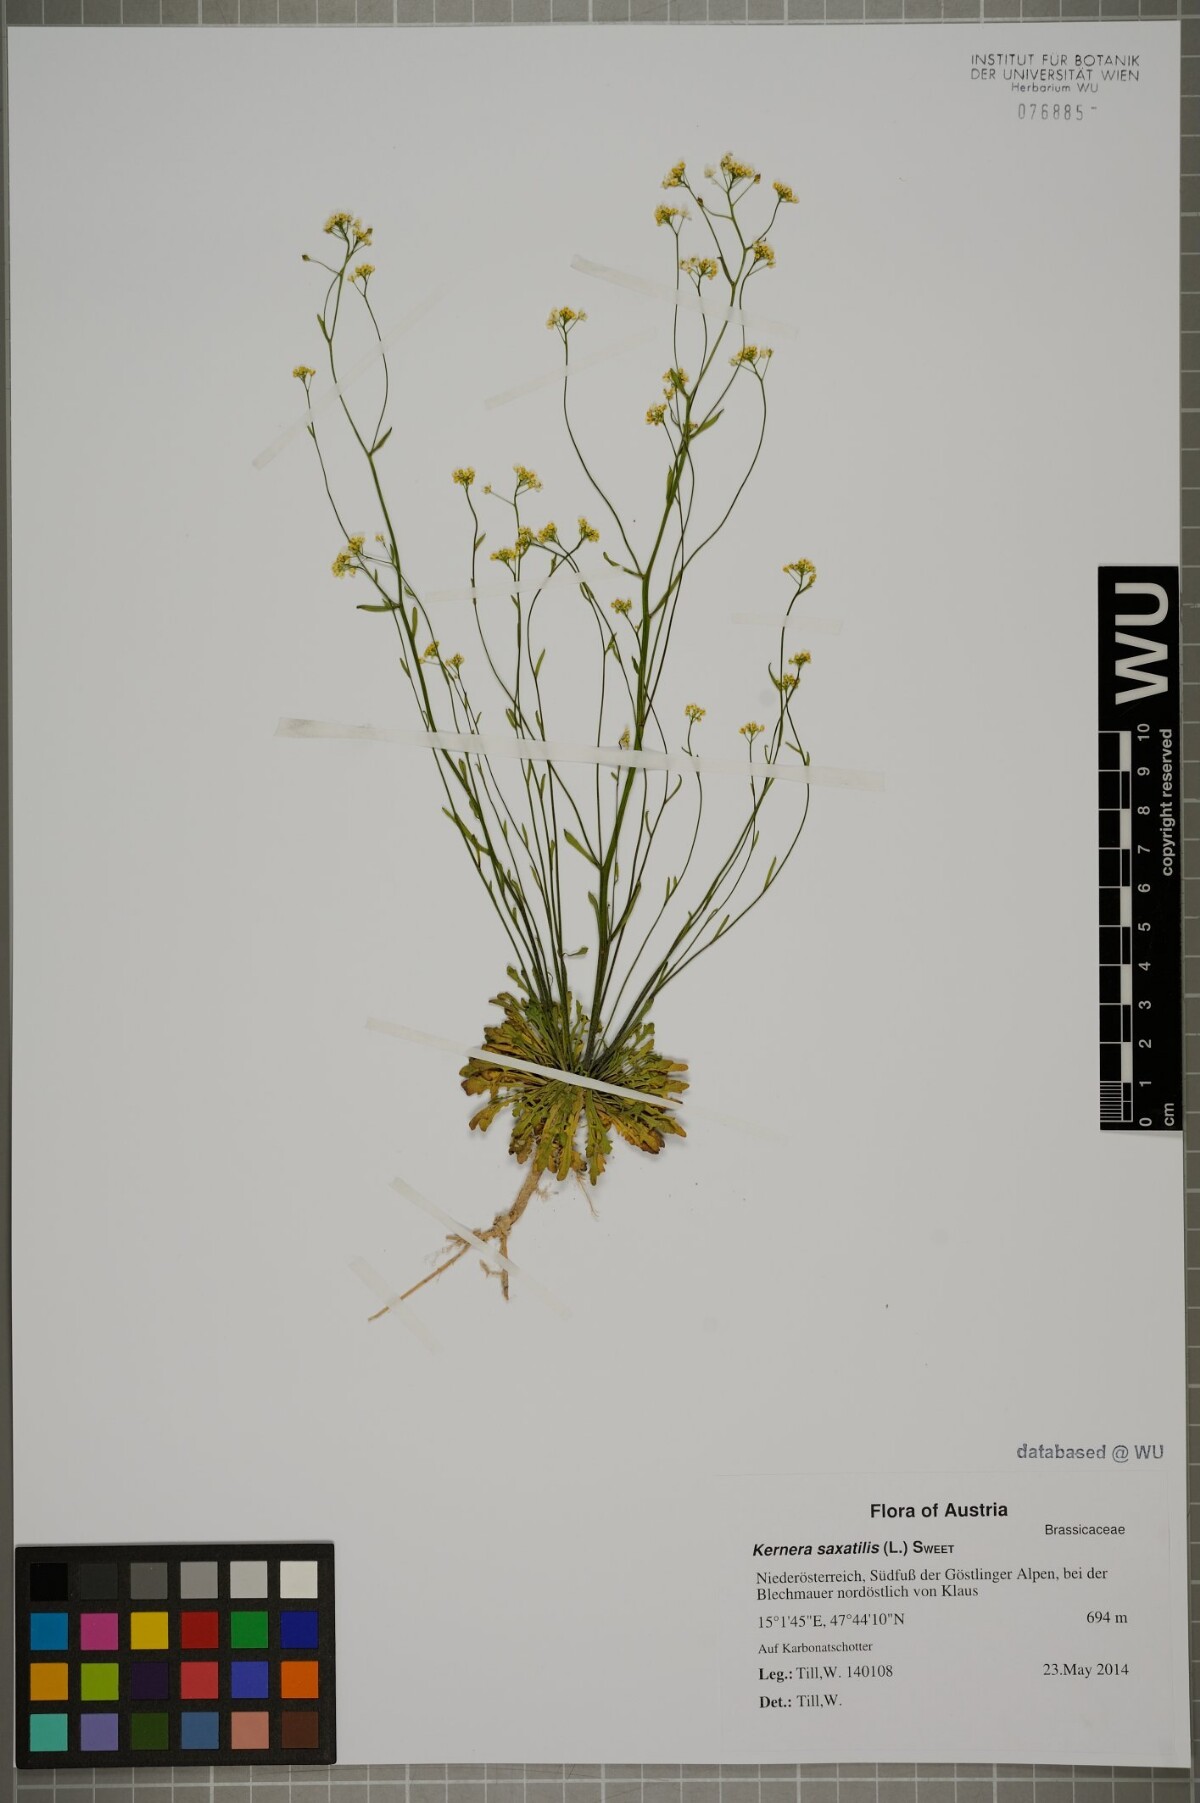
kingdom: Plantae
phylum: Tracheophyta
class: Magnoliopsida
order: Brassicales
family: Brassicaceae
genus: Kernera
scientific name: Kernera saxatilis
